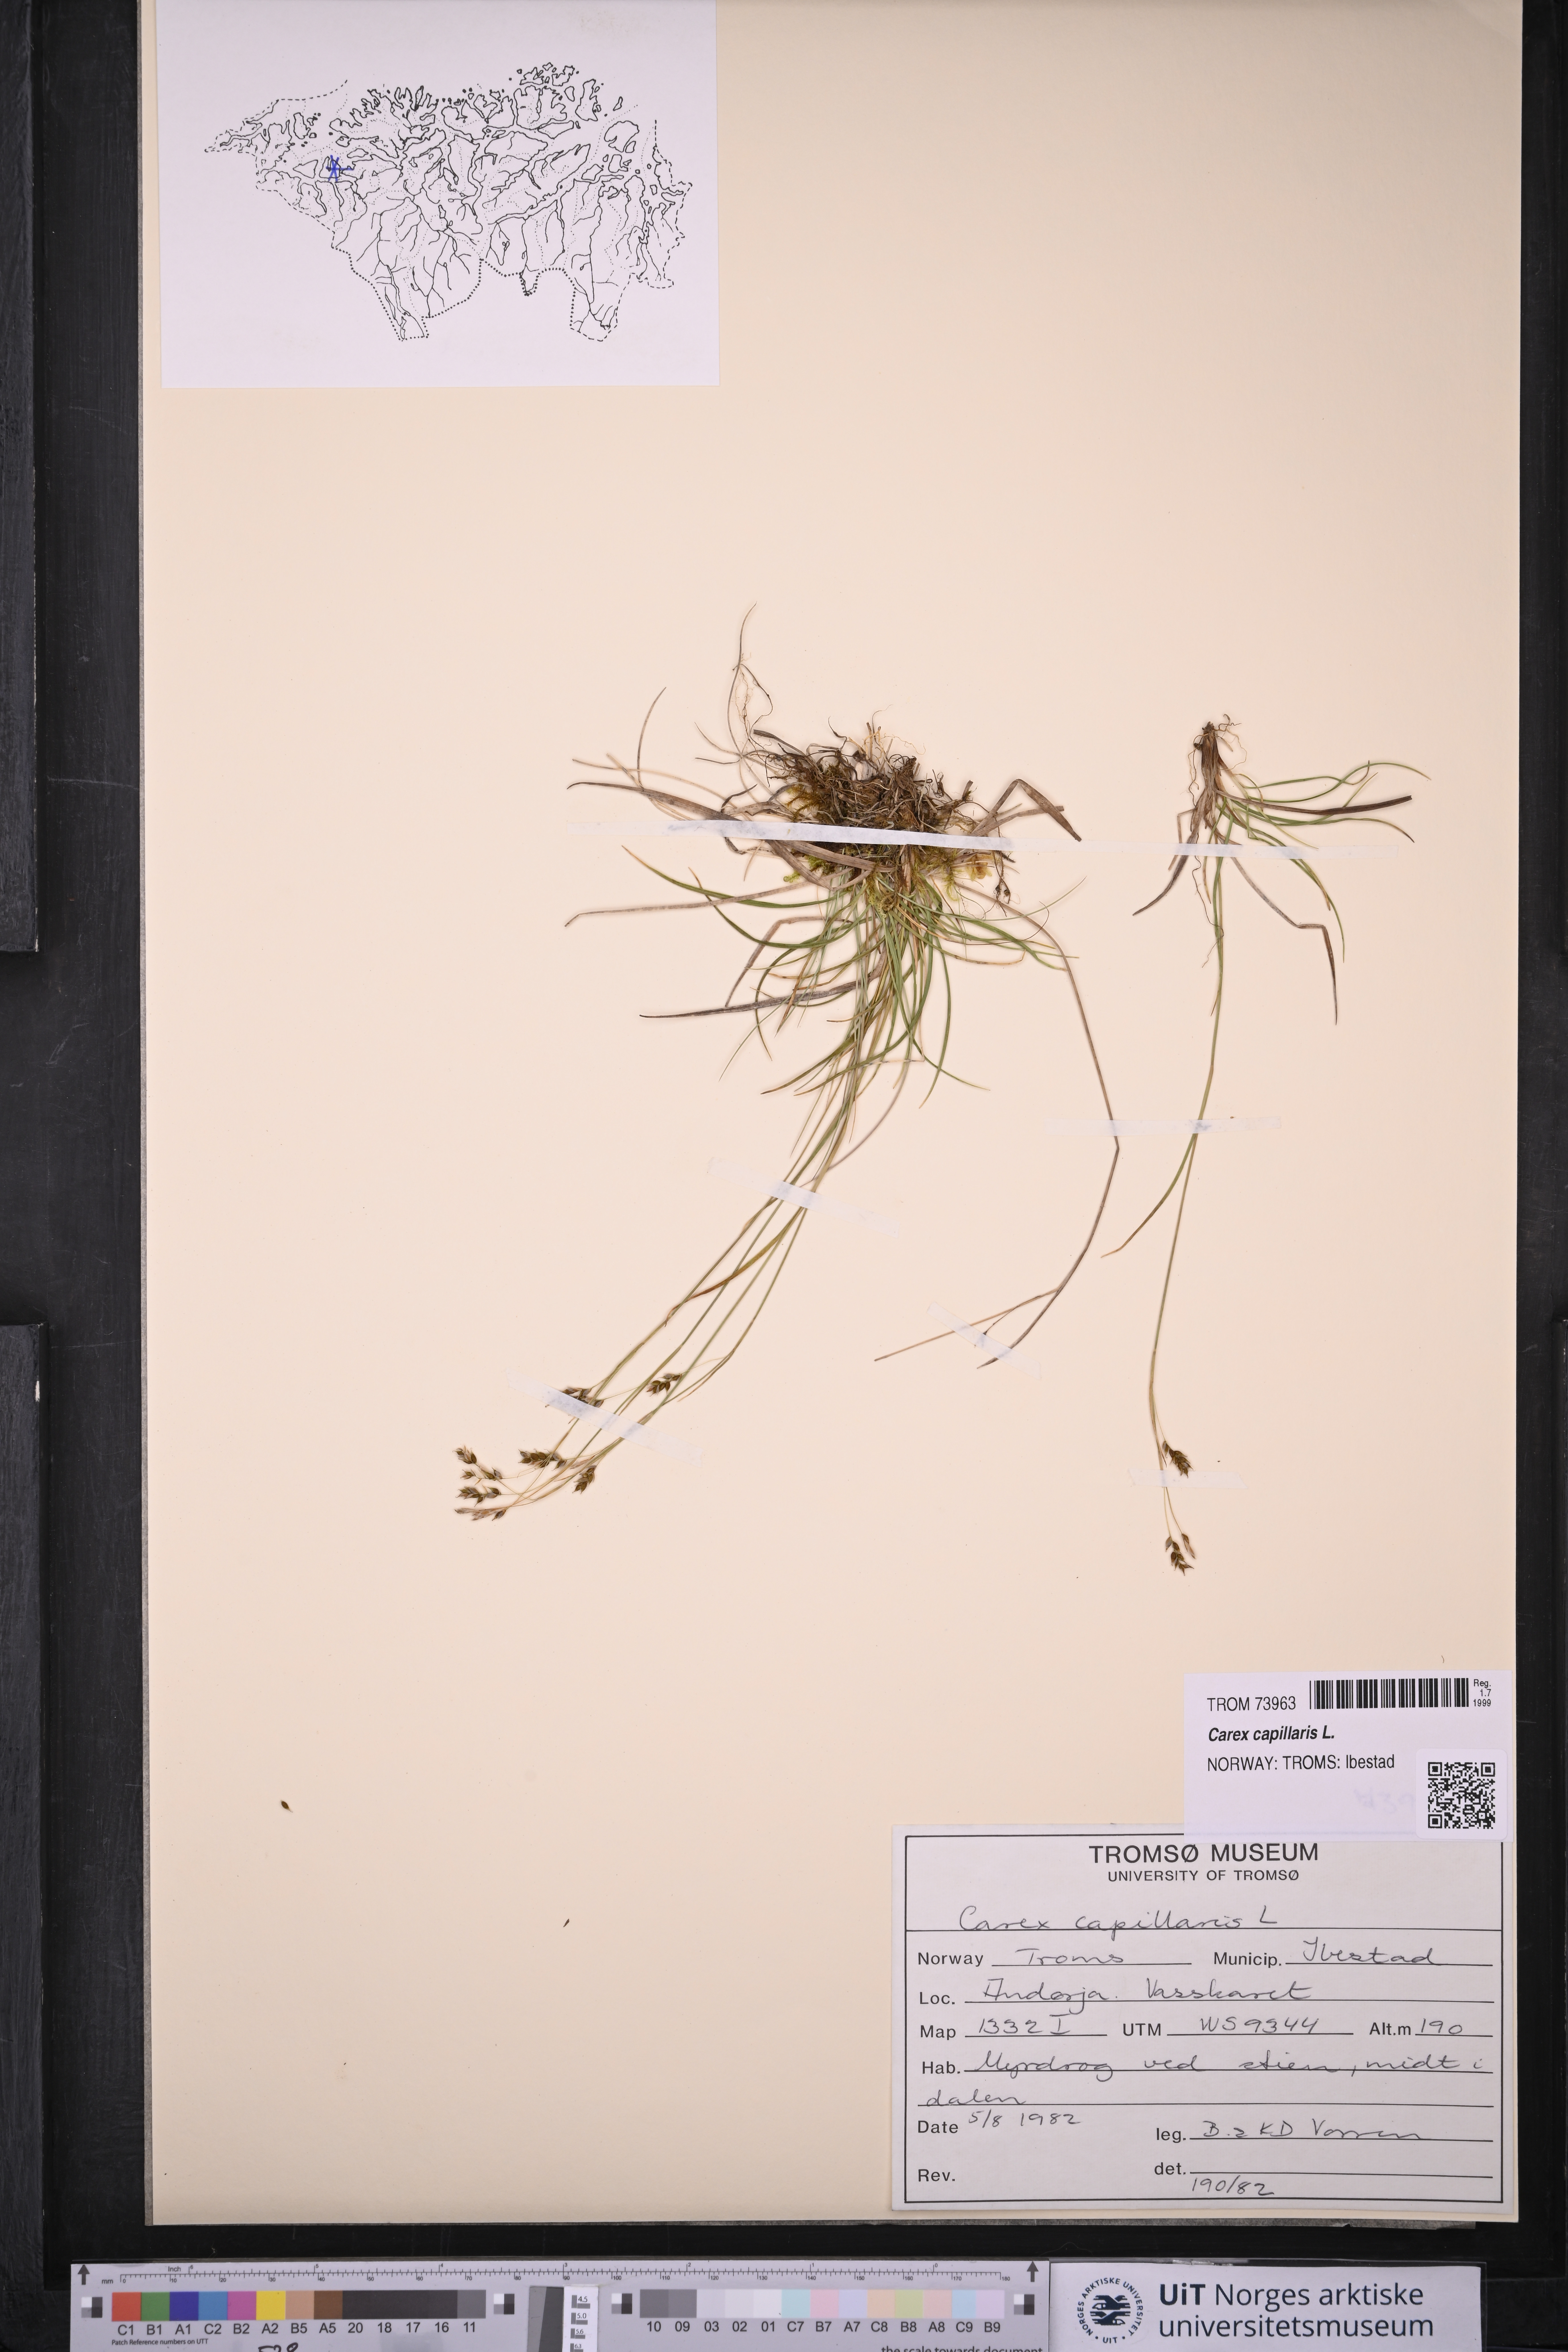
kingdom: Plantae
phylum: Tracheophyta
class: Liliopsida
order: Poales
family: Cyperaceae
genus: Carex
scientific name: Carex capillaris
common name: Hair sedge
